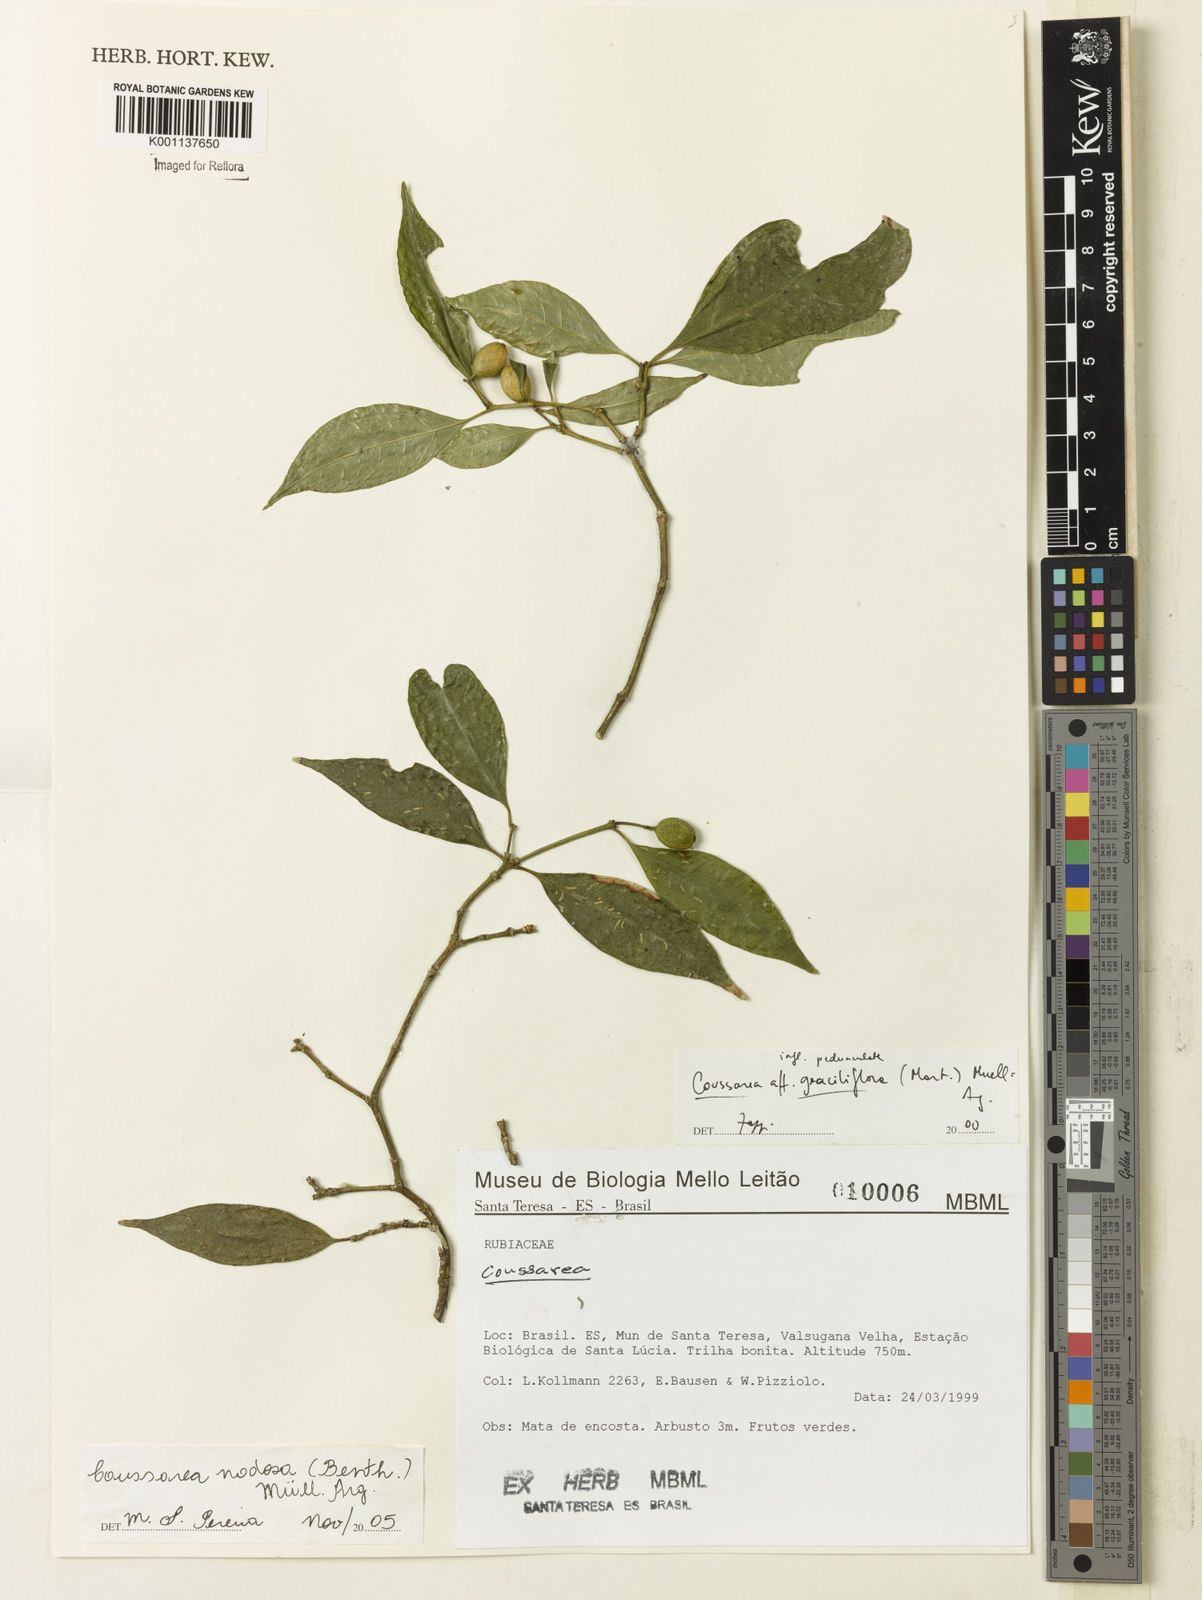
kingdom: Plantae
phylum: Tracheophyta
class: Magnoliopsida
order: Gentianales
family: Rubiaceae
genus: Coussarea
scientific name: Coussarea
